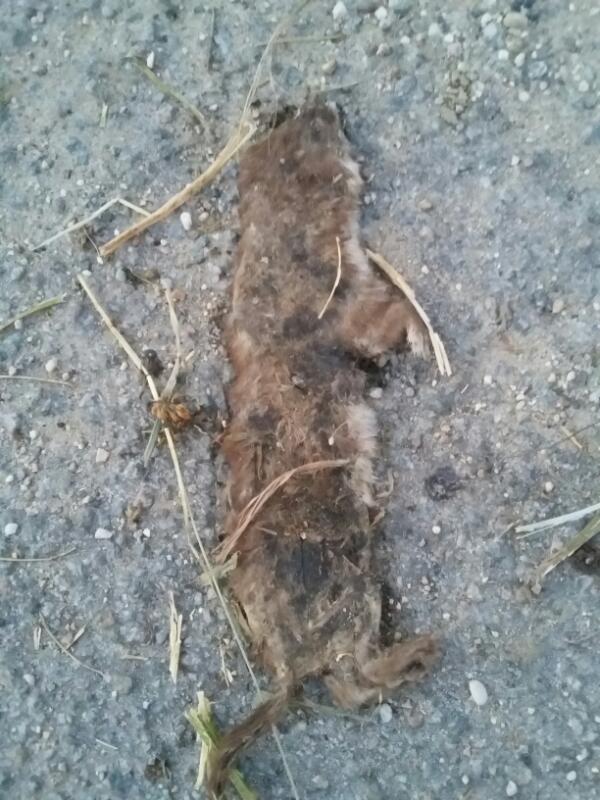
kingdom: Animalia
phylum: Chordata
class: Mammalia
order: Carnivora
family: Mustelidae
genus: Mustela
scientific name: Mustela nivalis
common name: Least weasel
